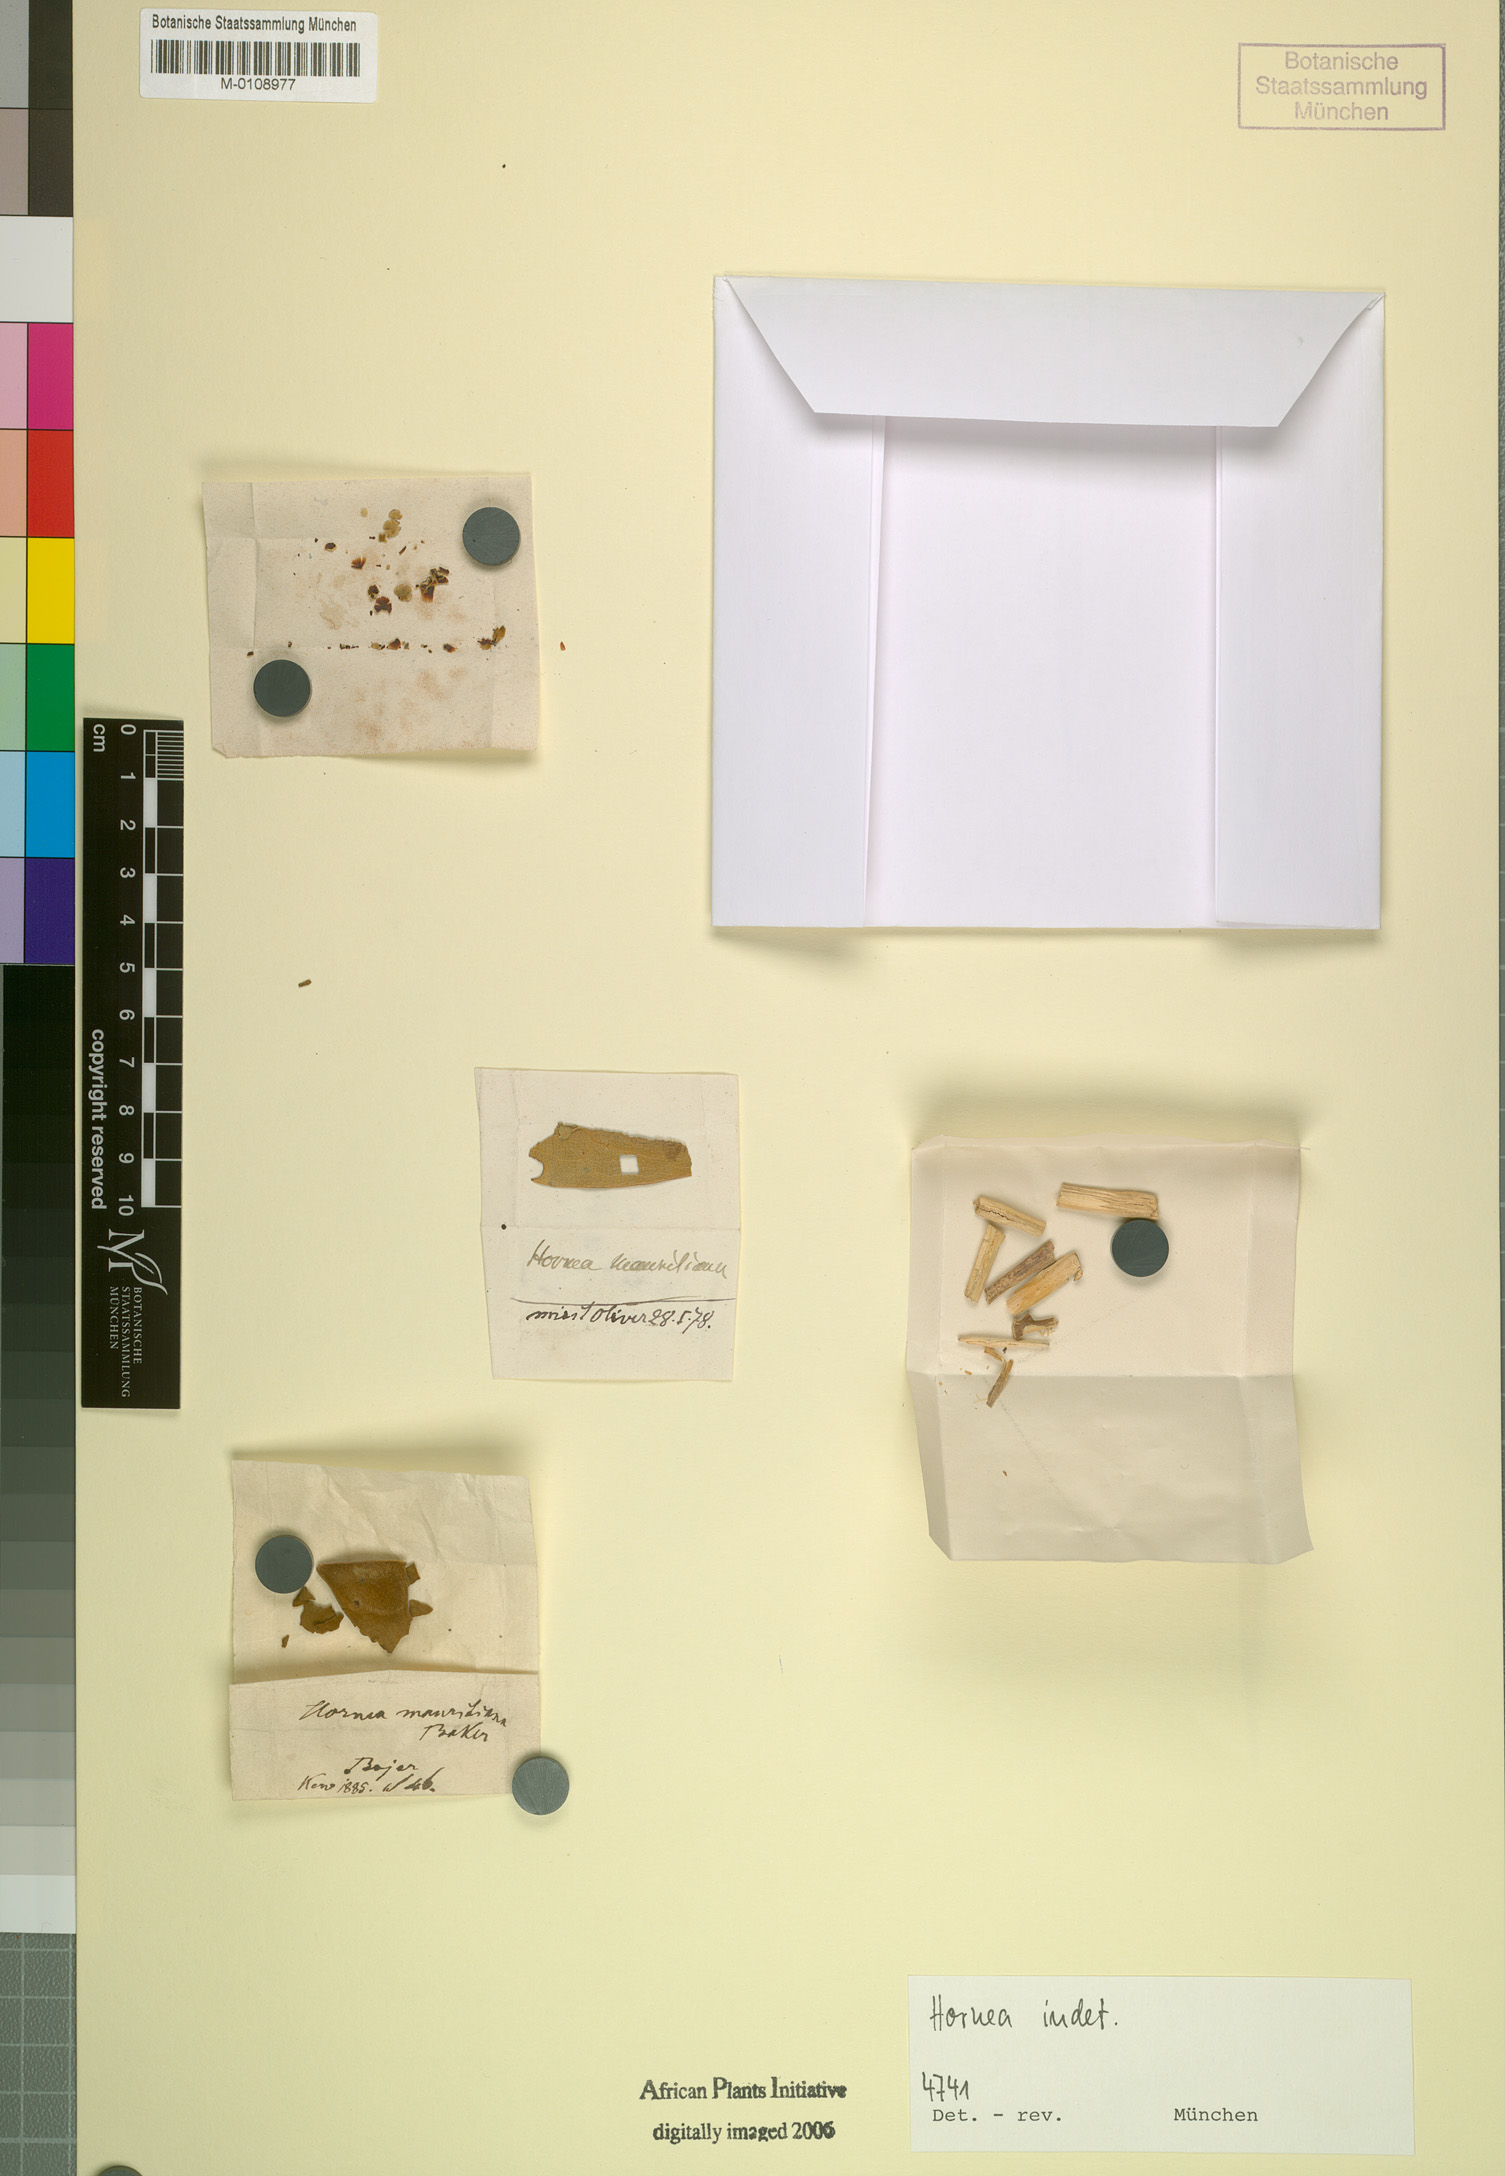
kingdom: Plantae
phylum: Tracheophyta
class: Magnoliopsida
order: Sapindales
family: Sapindaceae
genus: Hornea
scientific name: Hornea mauritiana
